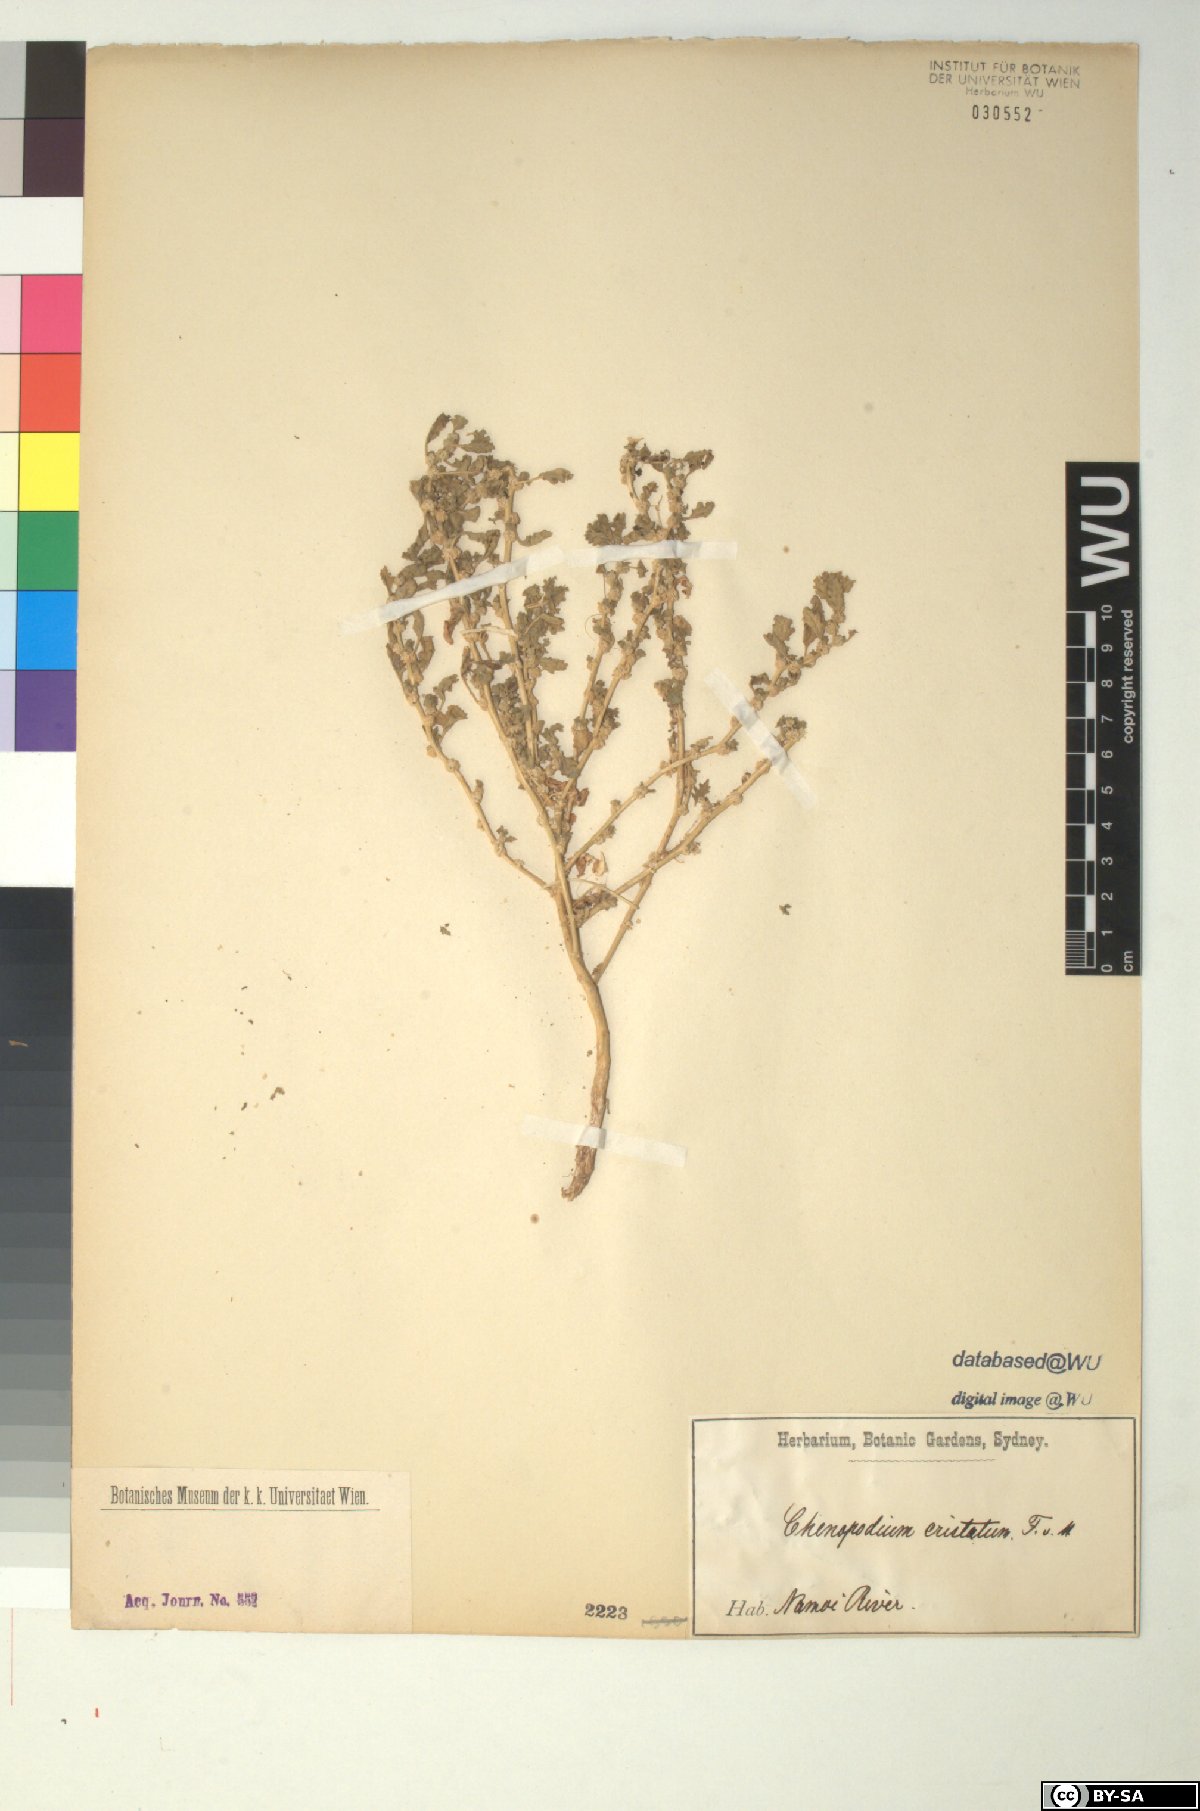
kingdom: Plantae
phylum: Tracheophyta
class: Magnoliopsida
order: Caryophyllales
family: Amaranthaceae
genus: Dysphania
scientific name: Dysphania cristata
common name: Crested goosefoot
